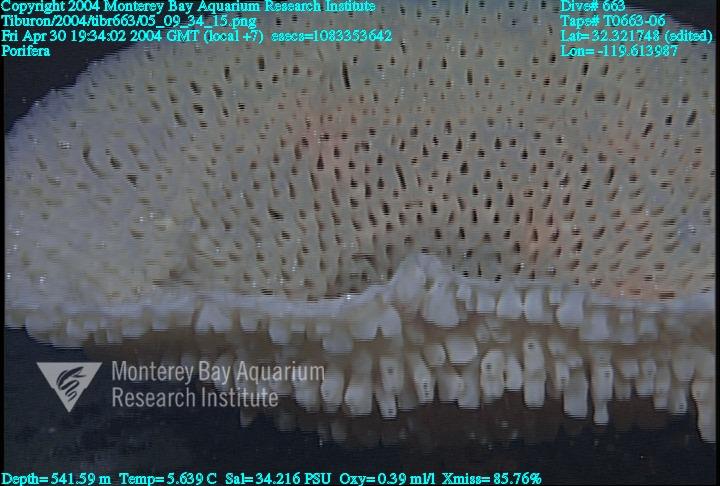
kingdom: Animalia
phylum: Porifera
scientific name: Porifera
